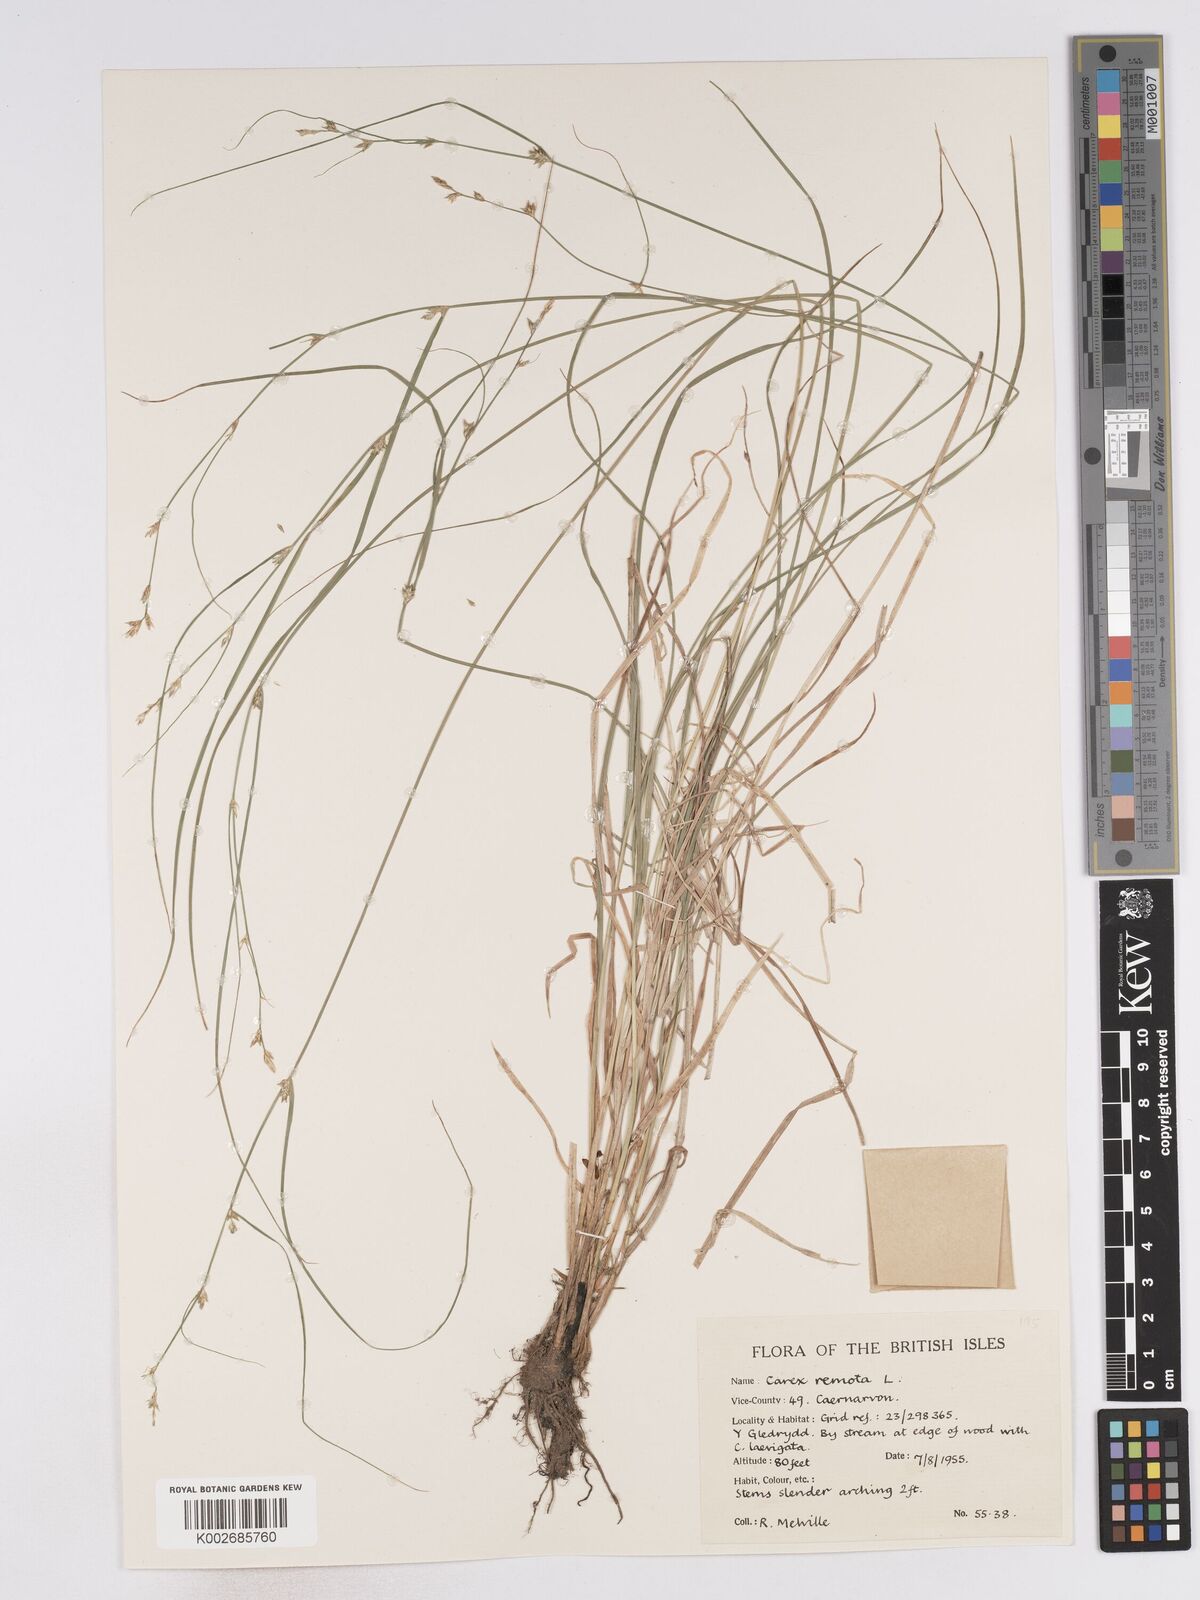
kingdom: Plantae
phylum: Tracheophyta
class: Liliopsida
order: Poales
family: Cyperaceae
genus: Carex
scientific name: Carex remota
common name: Remote sedge
